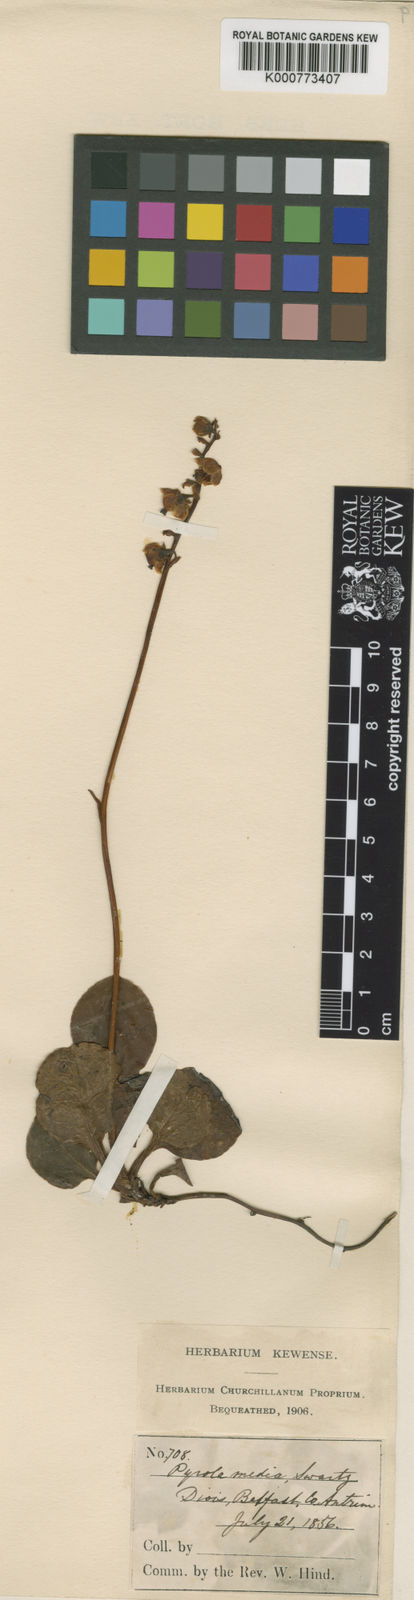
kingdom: Plantae
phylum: Tracheophyta
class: Magnoliopsida
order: Ericales
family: Ericaceae
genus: Pyrola
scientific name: Pyrola media
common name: Intermediate wintergreen
